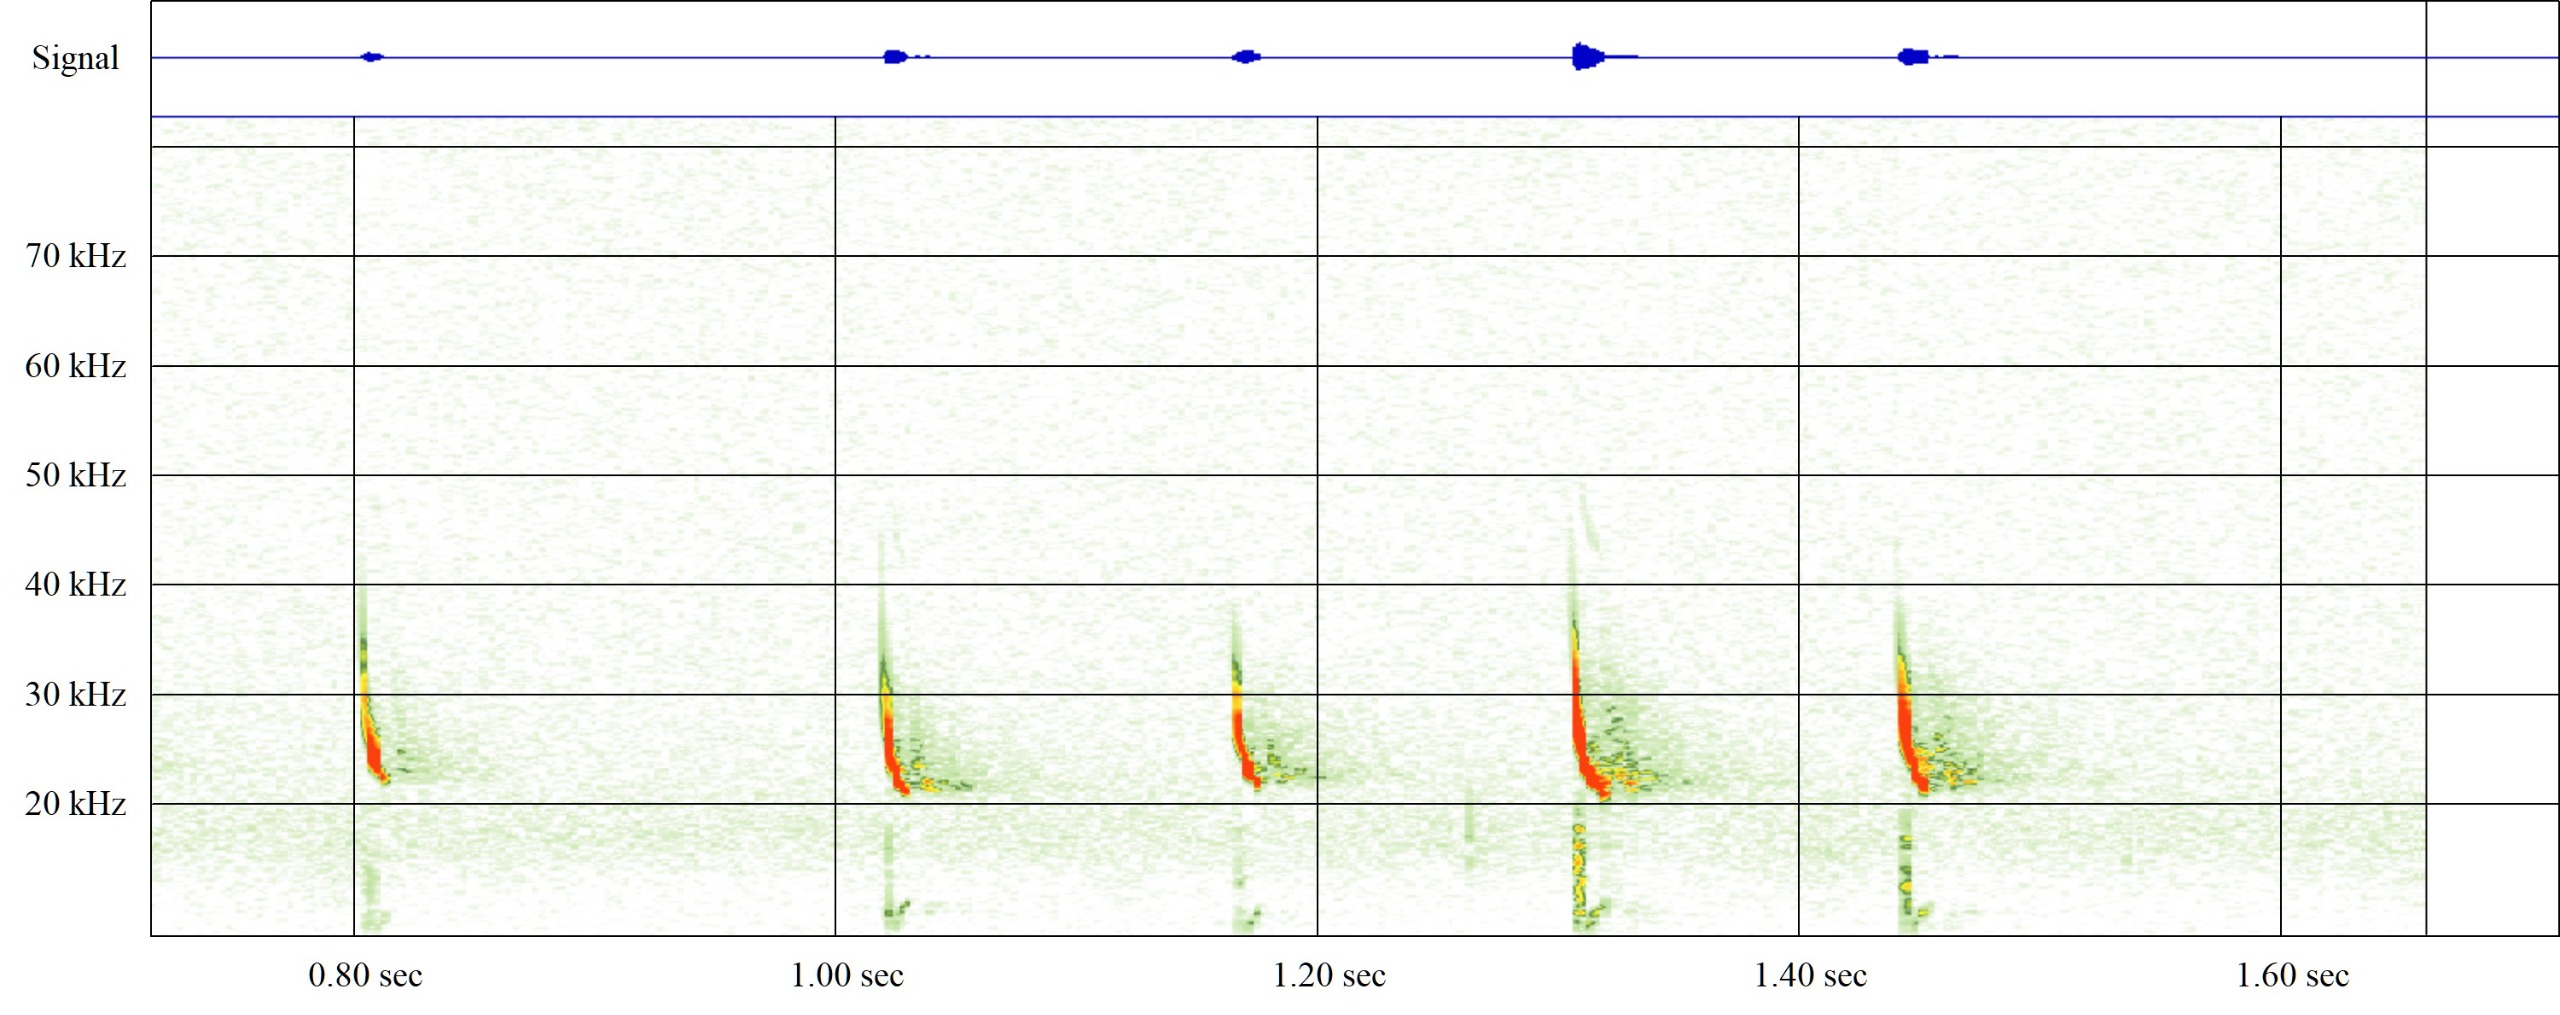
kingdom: Animalia
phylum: Chordata
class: Mammalia
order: Chiroptera
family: Vespertilionidae
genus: Eptesicus
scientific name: Eptesicus serotinus
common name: Sydflagermus
